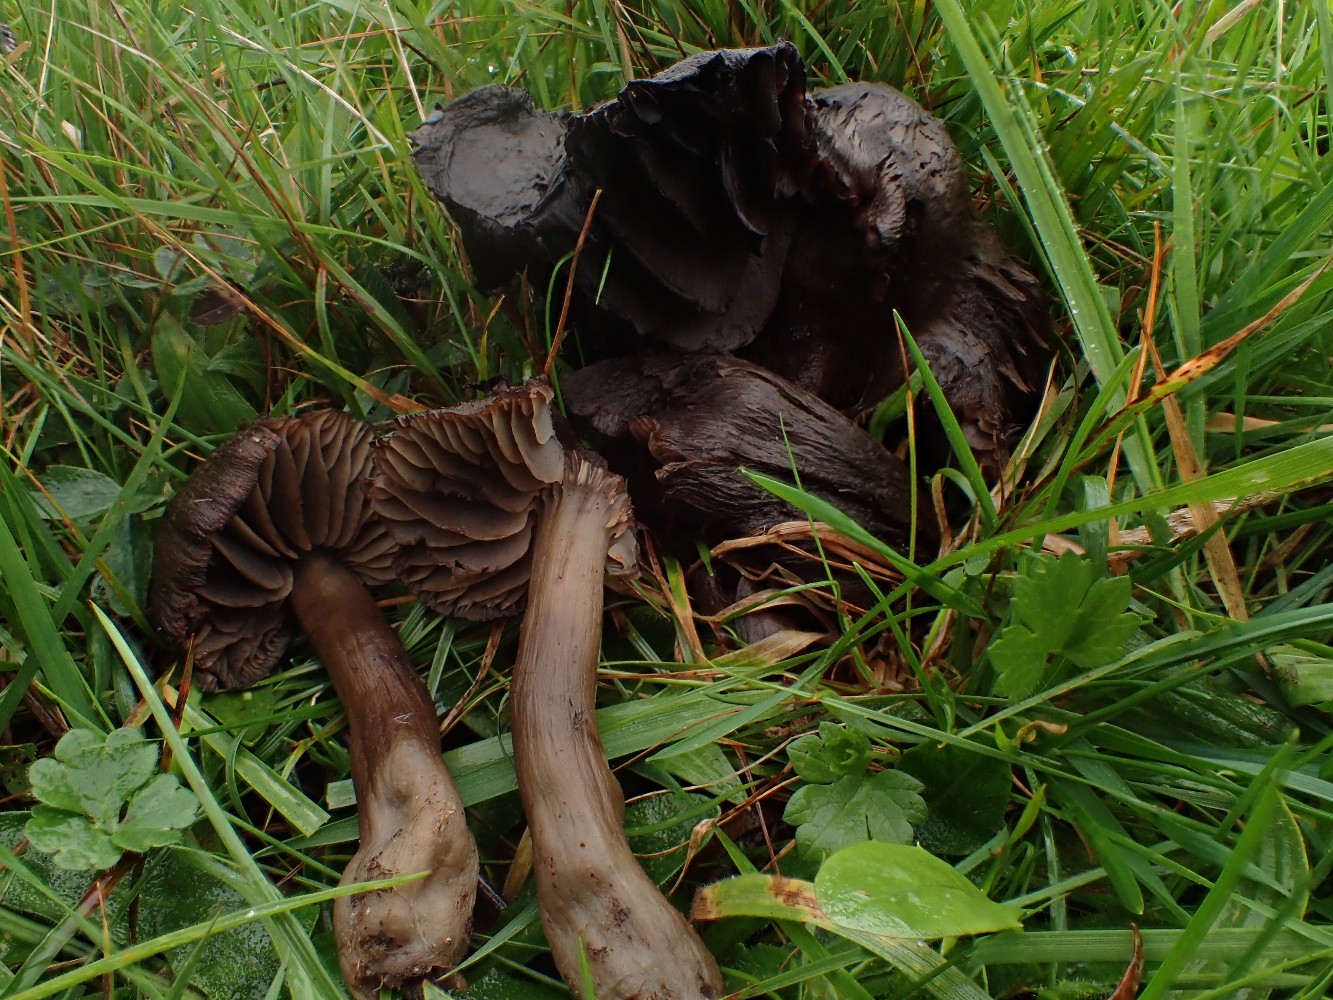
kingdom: Fungi
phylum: Basidiomycota
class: Agaricomycetes
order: Agaricales
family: Hygrophoraceae
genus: Neohygrocybe
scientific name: Neohygrocybe ovina
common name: rødmende vokshat
